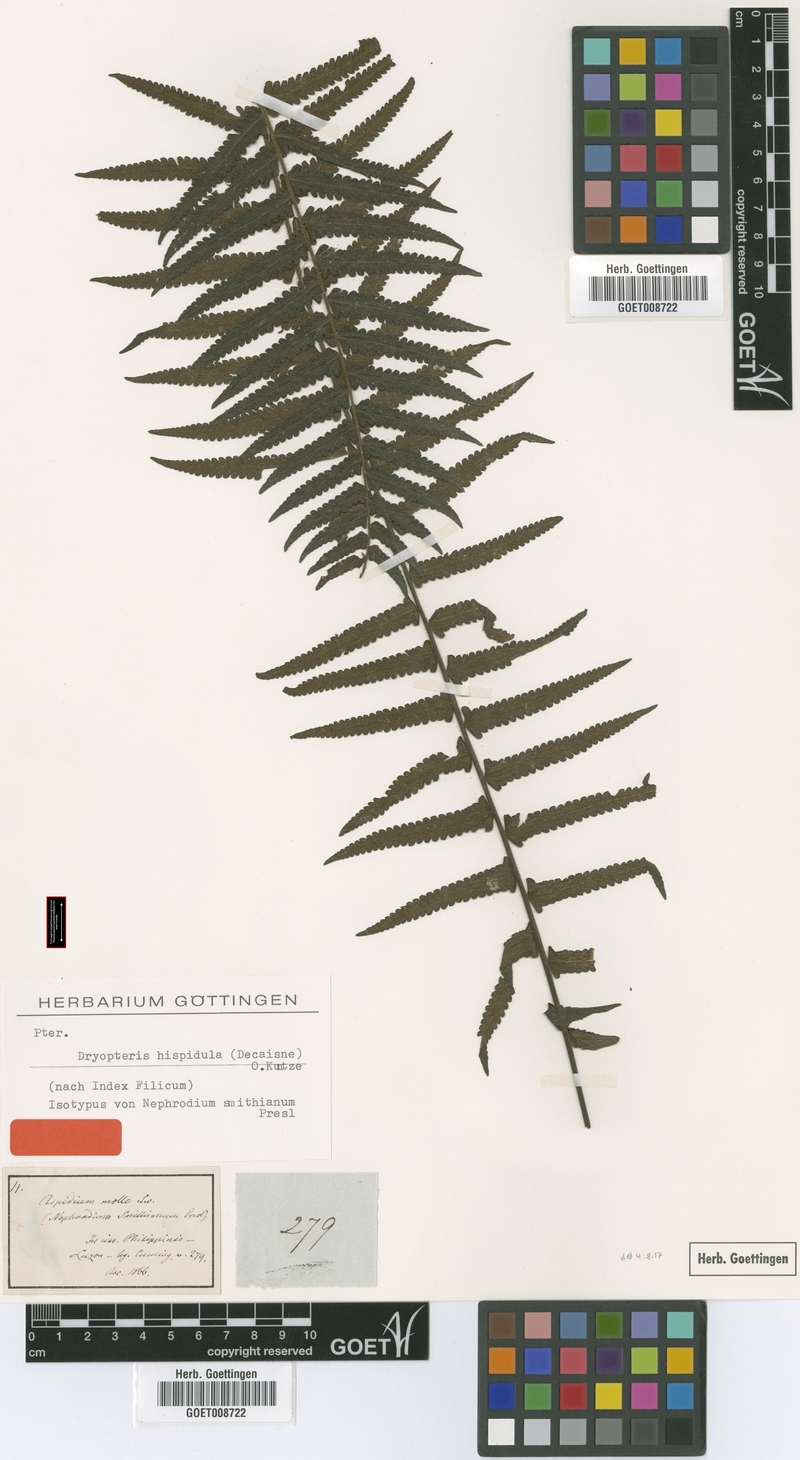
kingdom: Plantae
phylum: Tracheophyta
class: Polypodiopsida
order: Polypodiales
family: Thelypteridaceae
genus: Christella
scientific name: Christella hispidula
